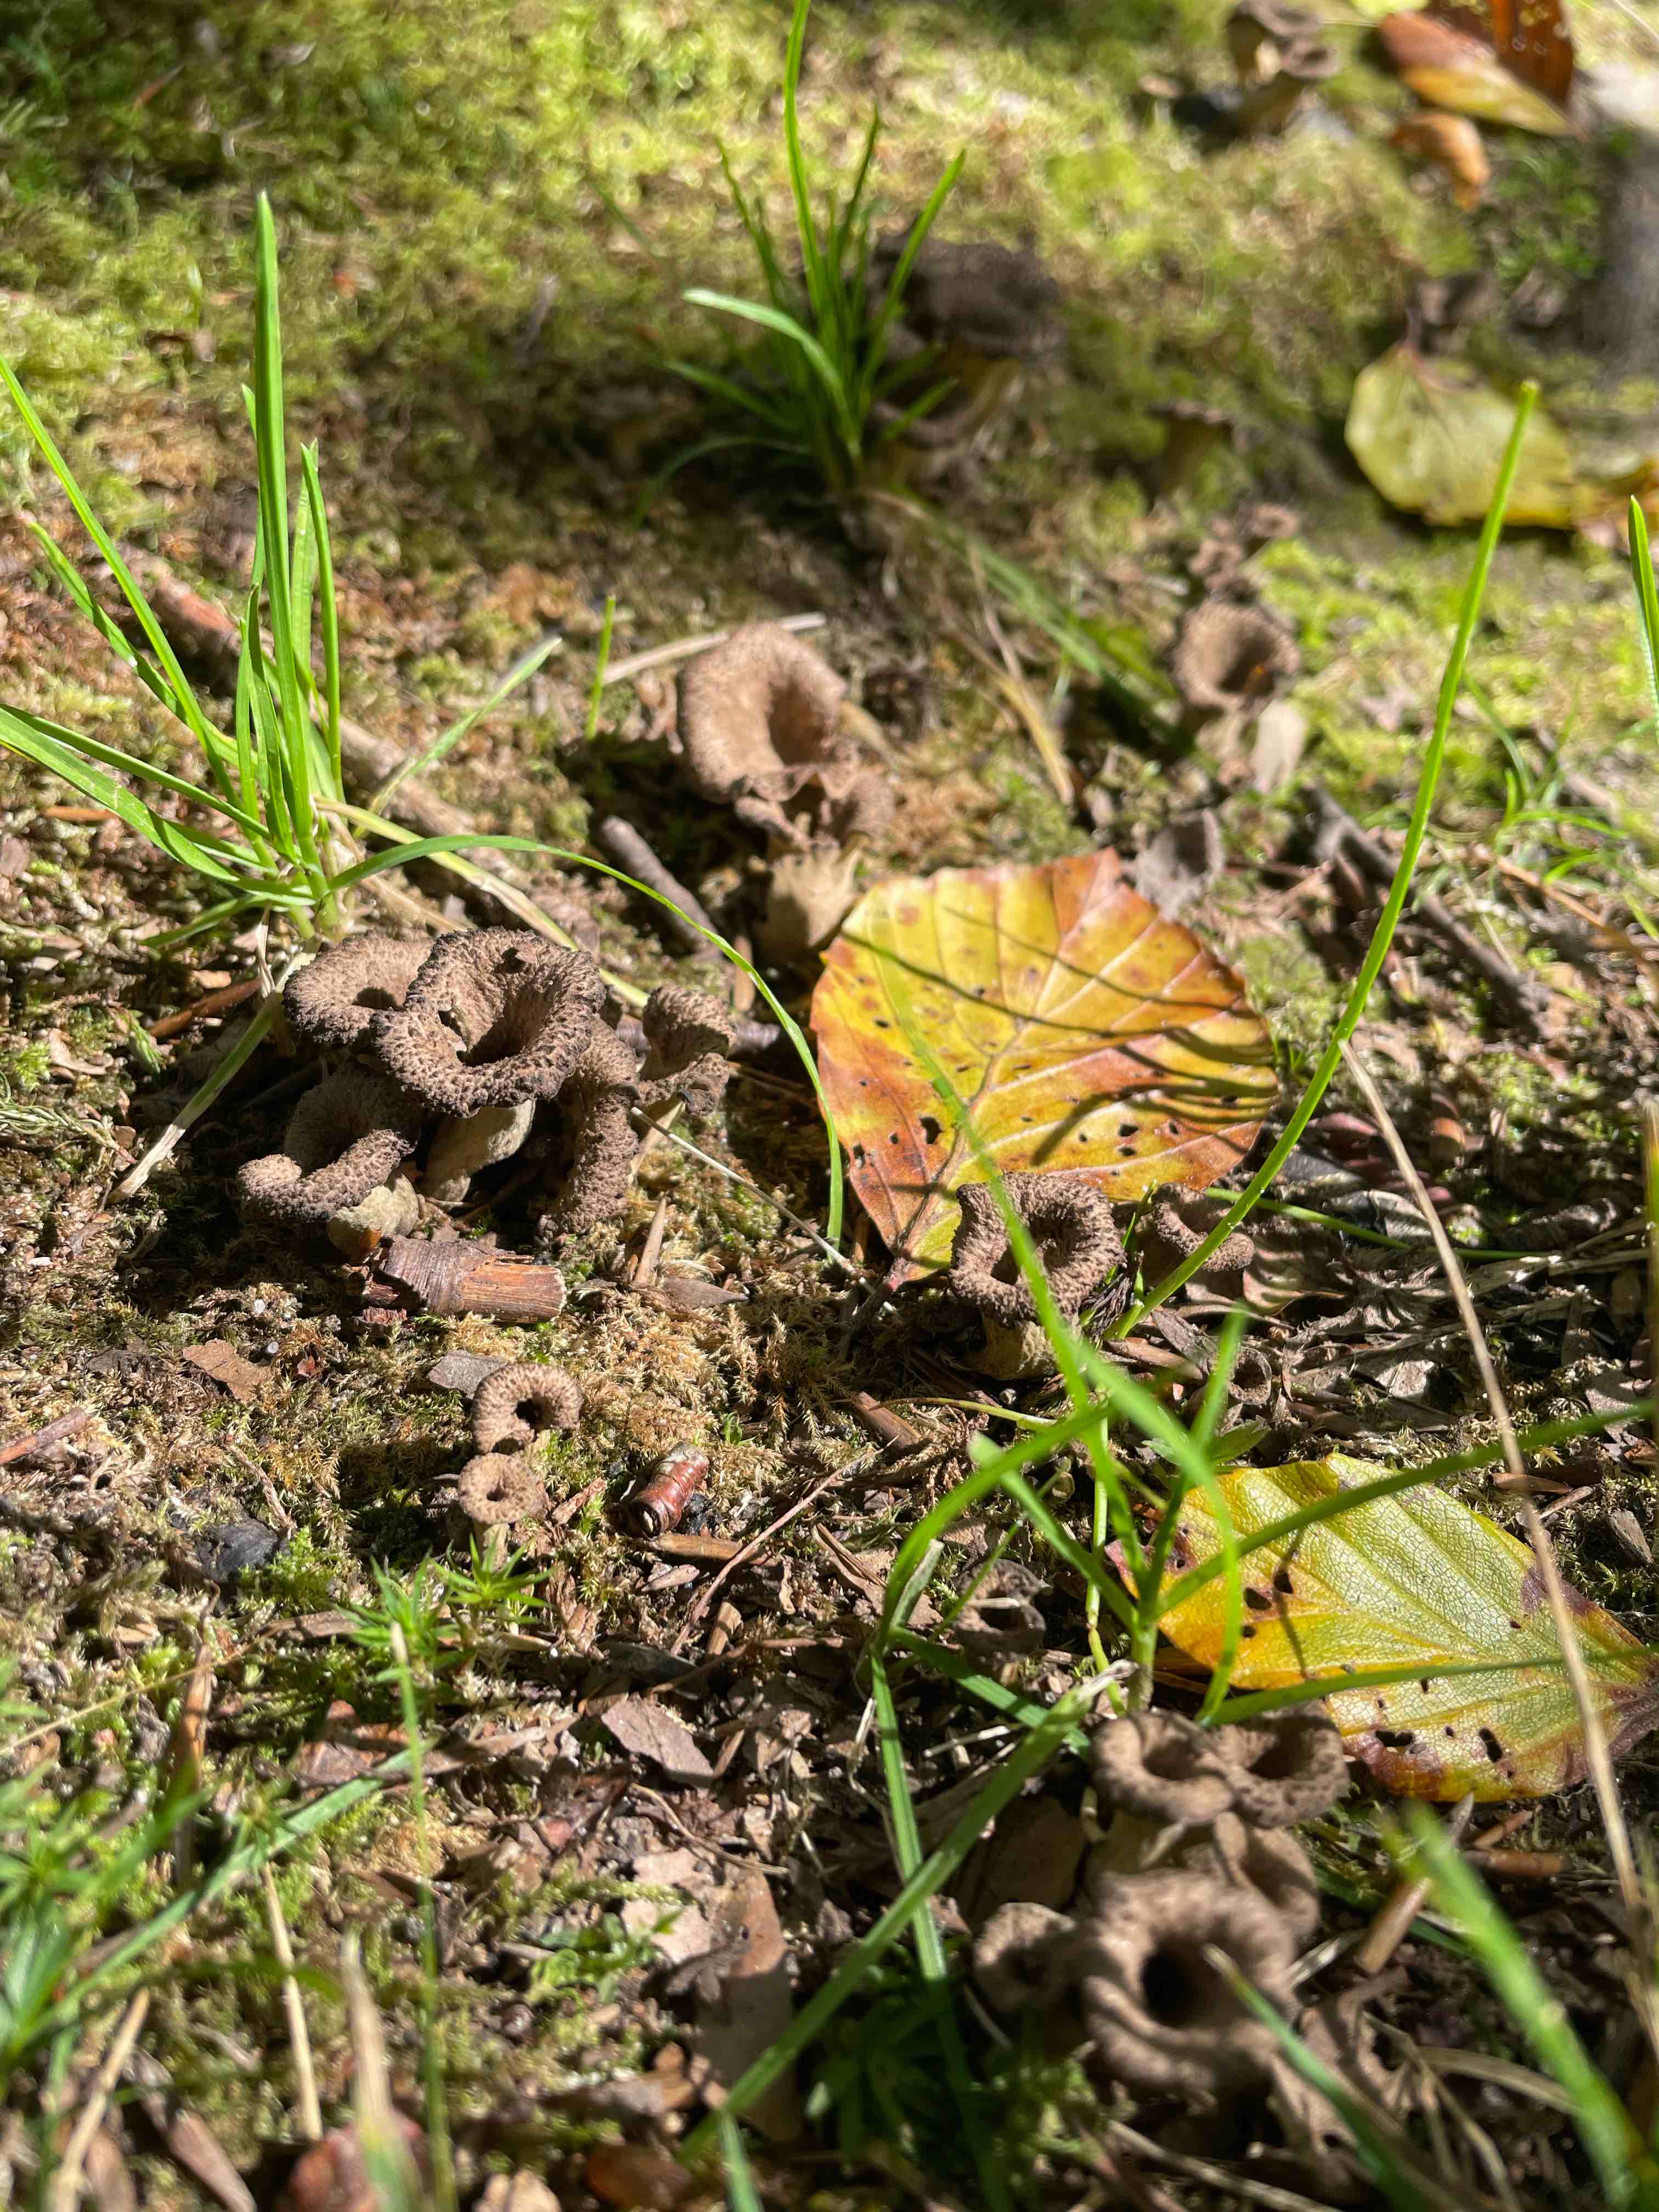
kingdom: Fungi
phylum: Basidiomycota
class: Agaricomycetes
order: Cantharellales
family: Hydnaceae
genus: Craterellus
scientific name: Craterellus cornucopioides
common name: trompetsvamp
